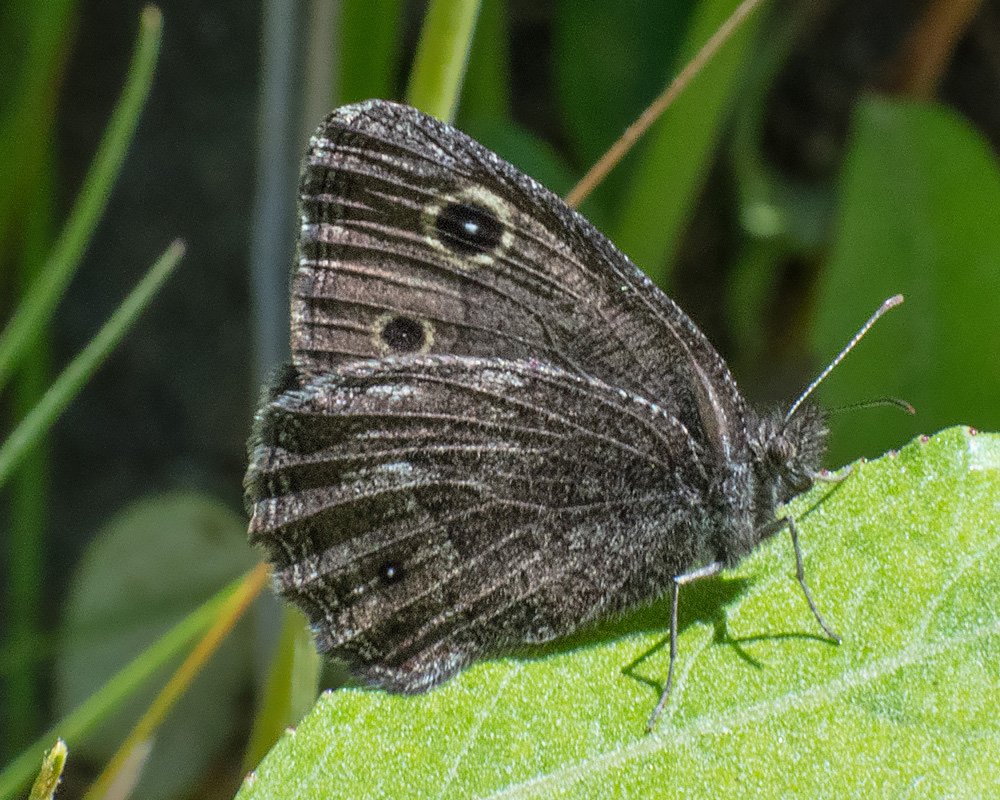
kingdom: Animalia
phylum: Arthropoda
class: Insecta
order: Lepidoptera
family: Nymphalidae
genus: Cercyonis
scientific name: Cercyonis oetus
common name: Small Wood-Nymph
